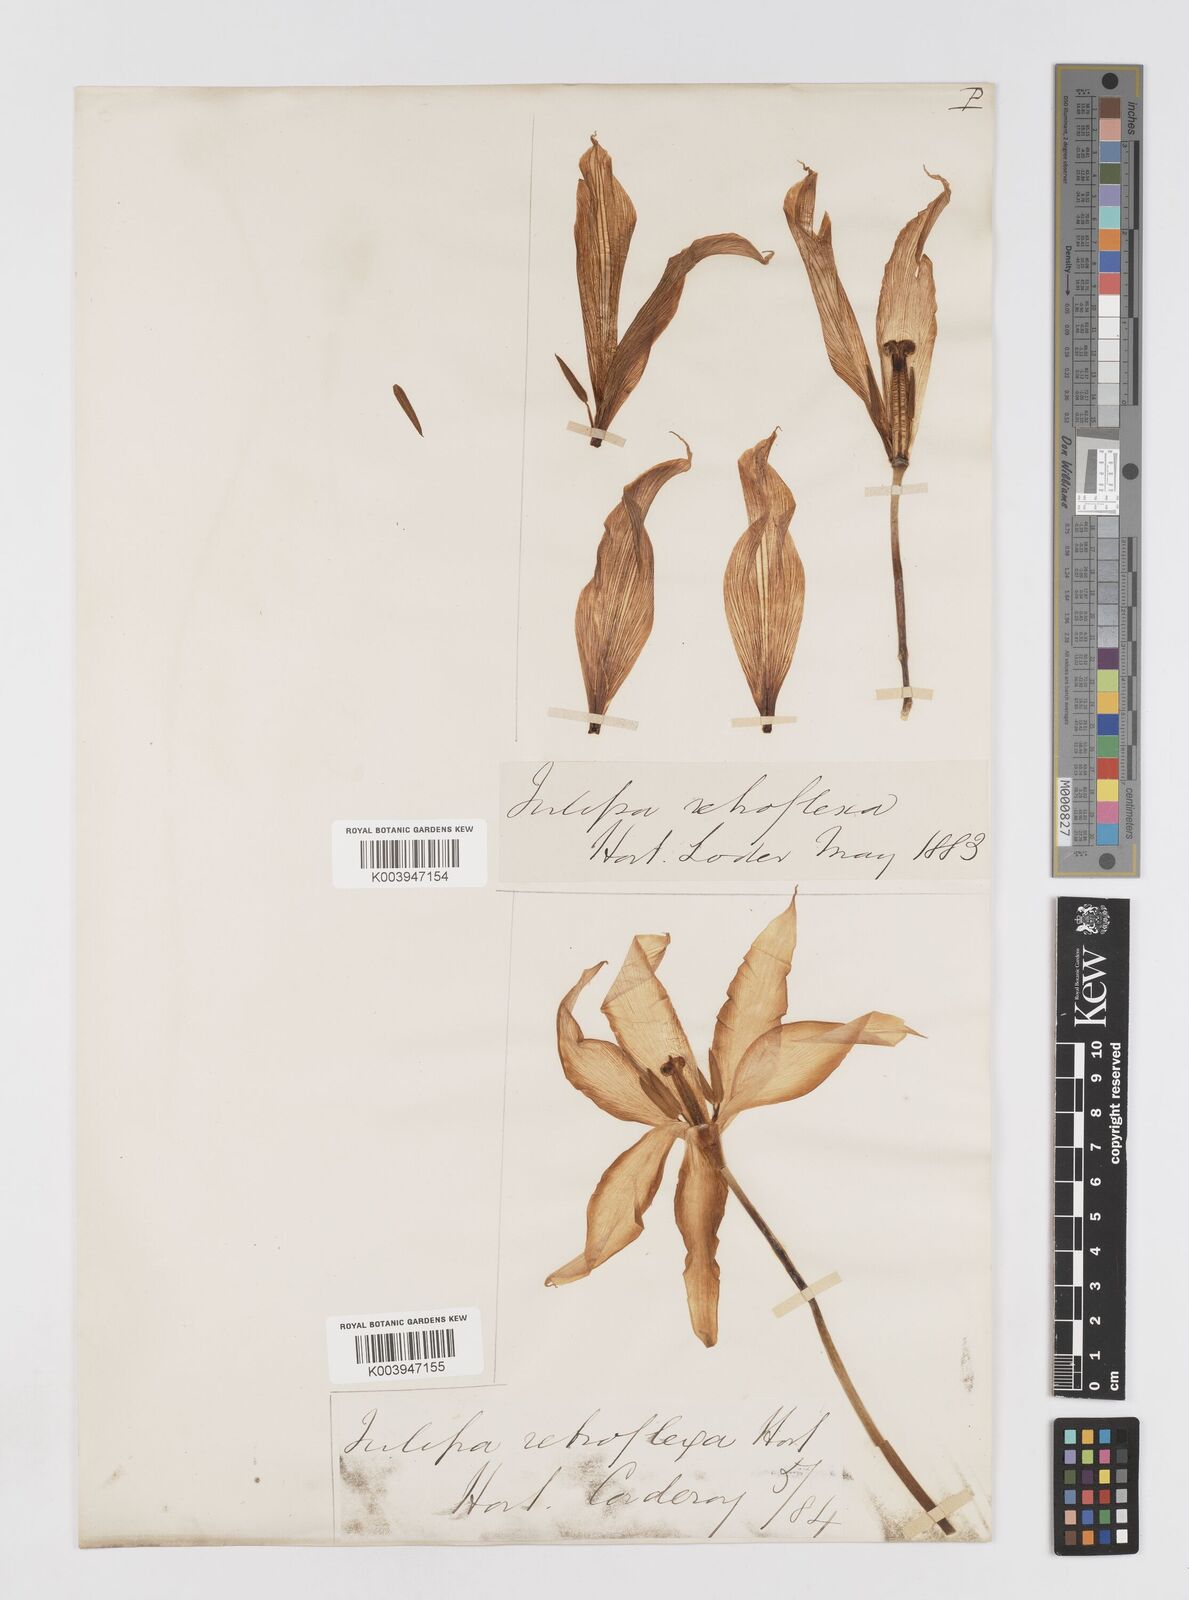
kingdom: Plantae
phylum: Tracheophyta
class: Liliopsida
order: Liliales
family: Liliaceae
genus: Tulipa
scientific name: Tulipa gesneriana
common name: Garden tulip
